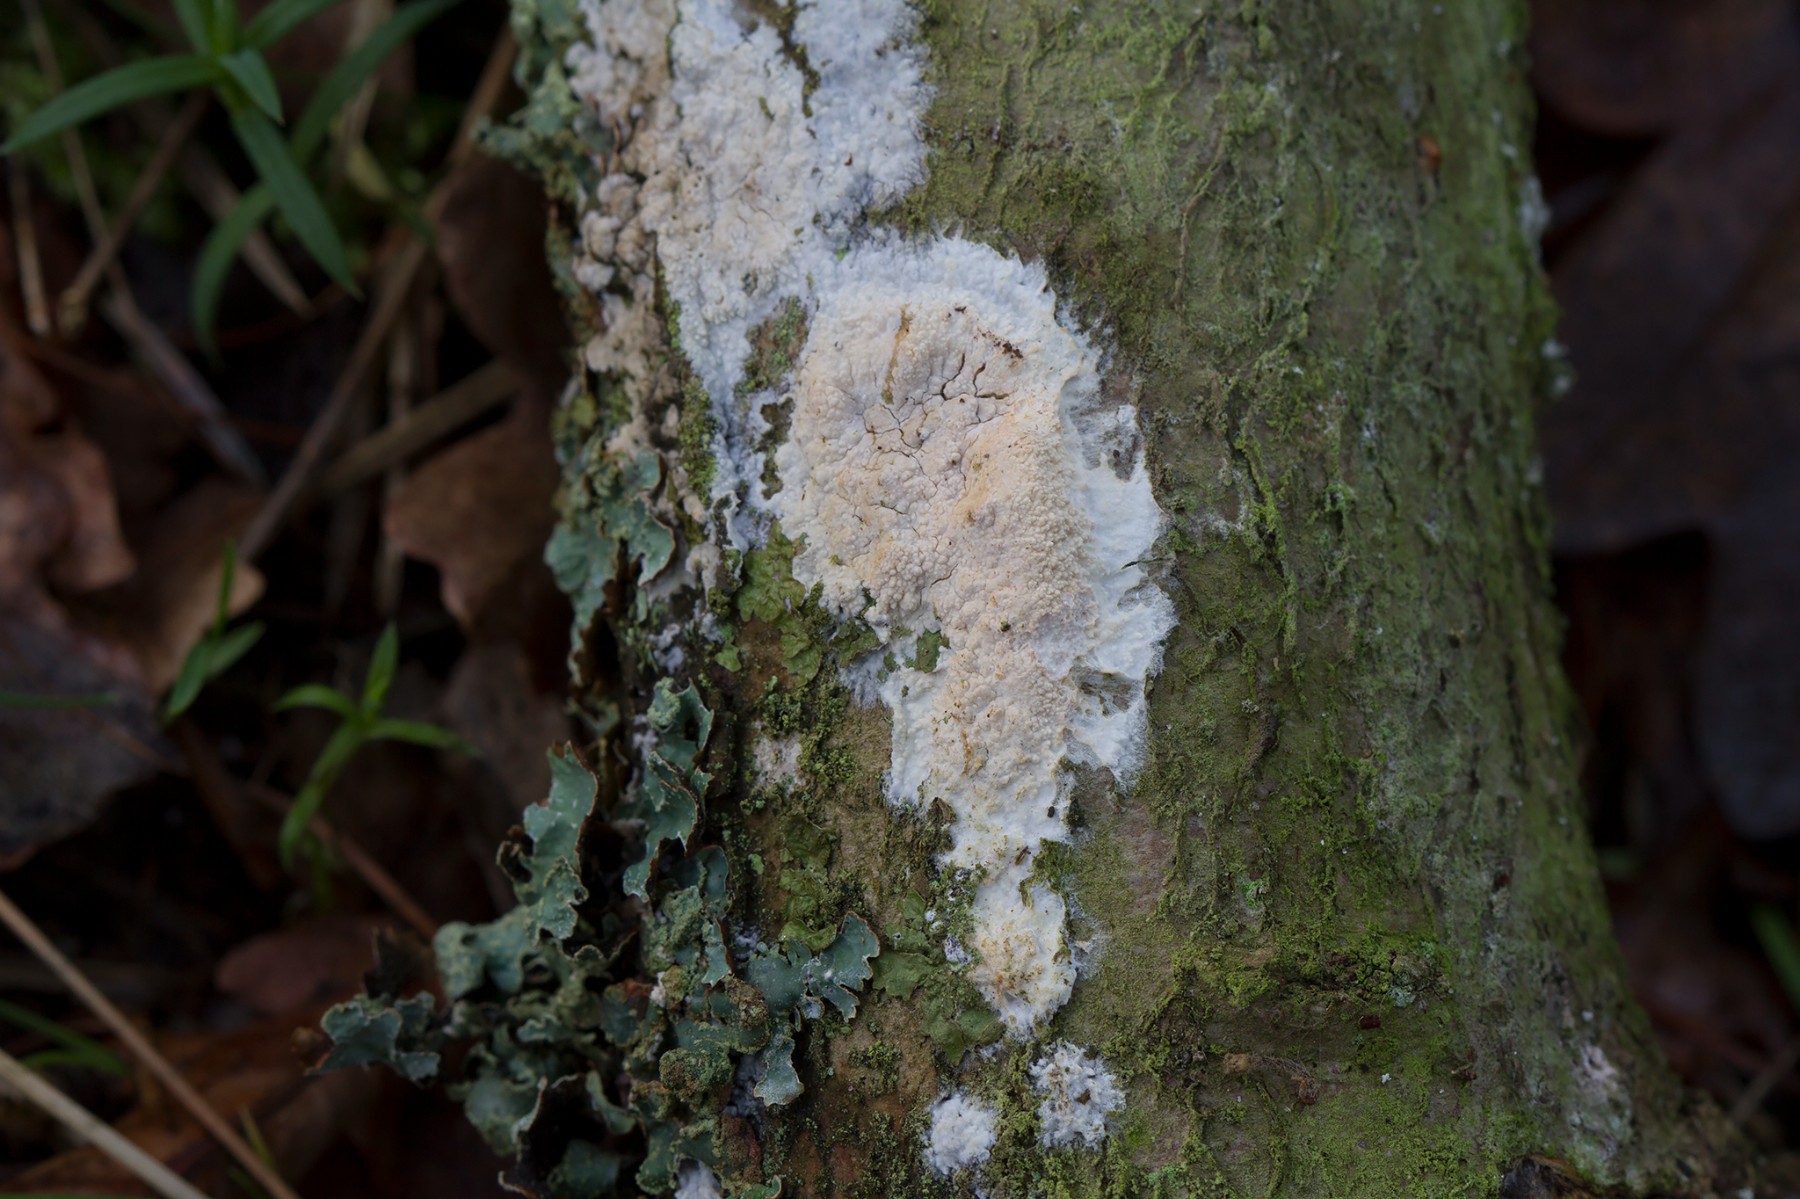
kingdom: Fungi
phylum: Basidiomycota
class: Agaricomycetes
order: Polyporales
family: Hyphodermataceae
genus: Hyphoderma
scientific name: Hyphoderma setigerum
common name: håret kalkskind
